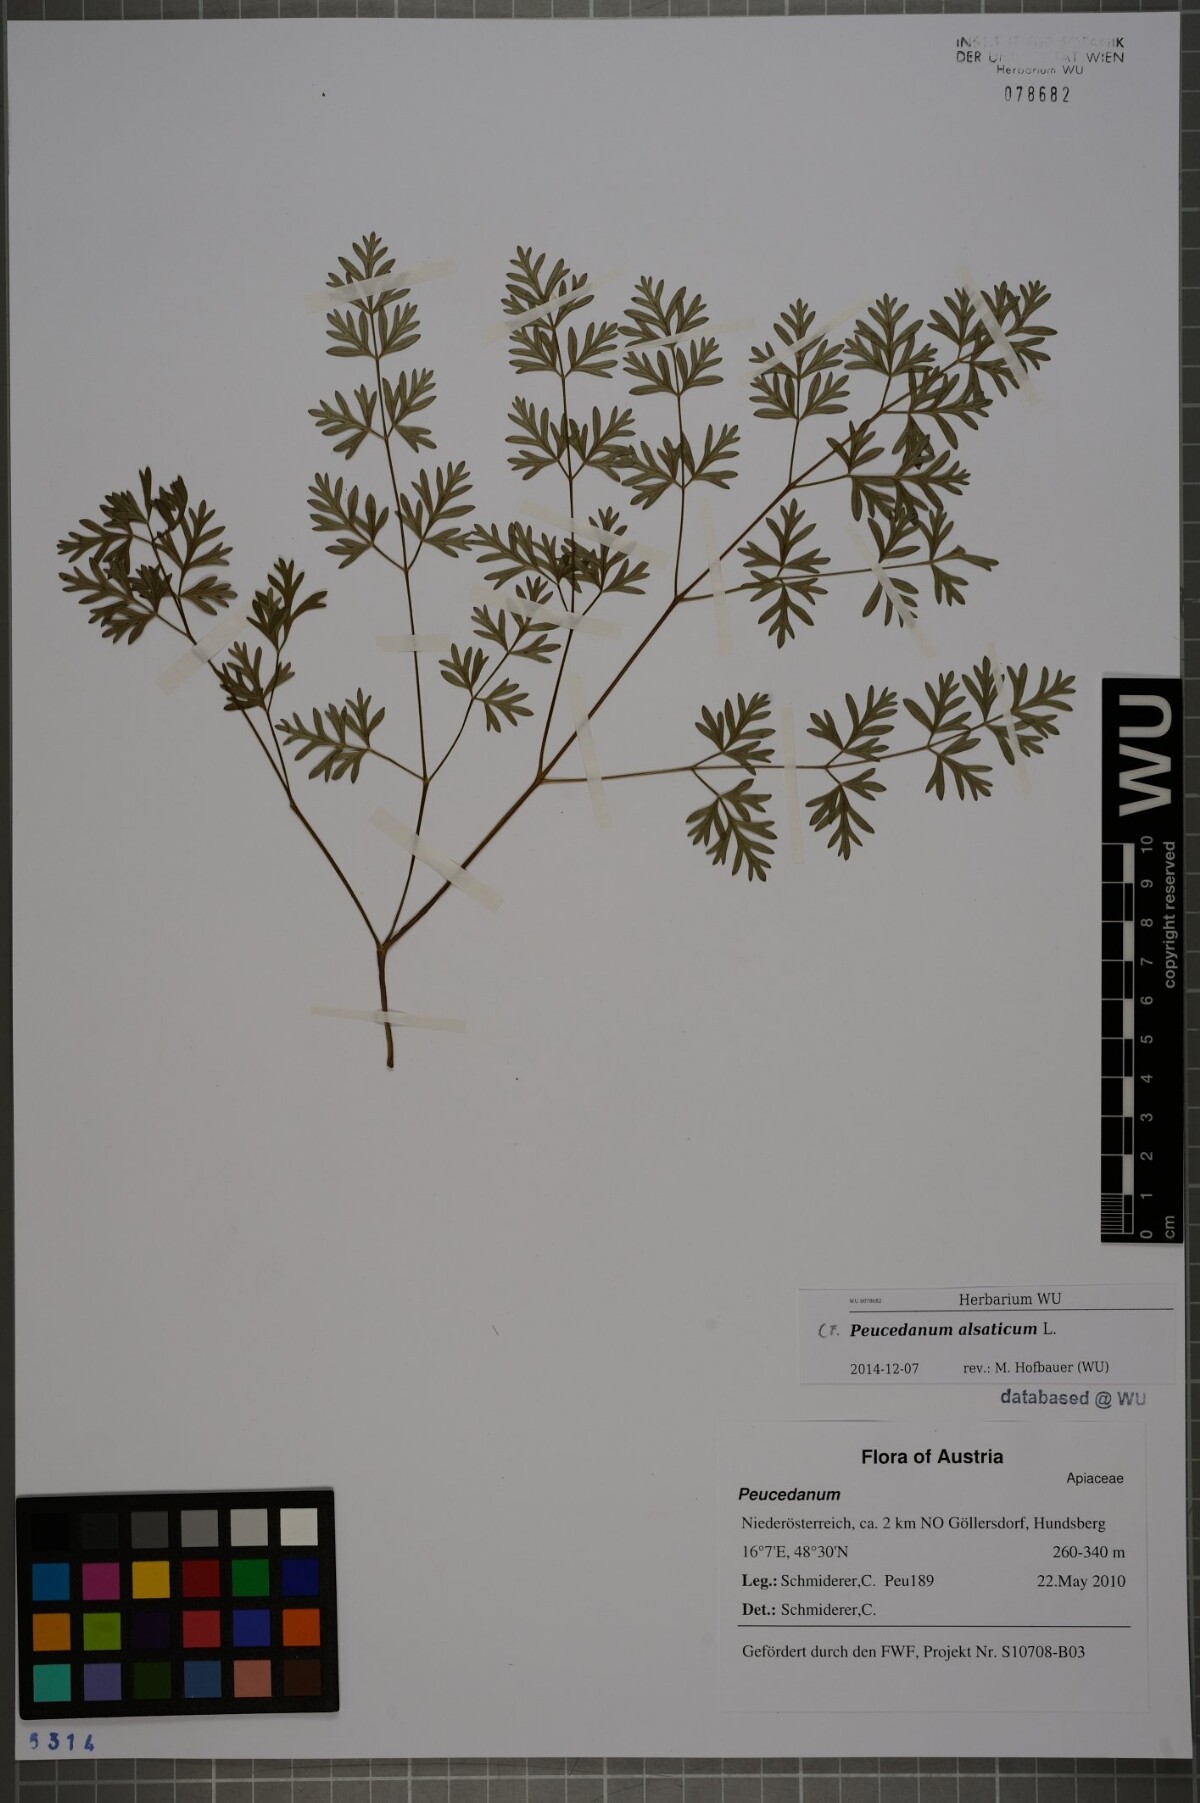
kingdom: Plantae
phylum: Tracheophyta
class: Magnoliopsida
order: Apiales
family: Apiaceae
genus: Xanthoselinum
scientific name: Xanthoselinum alsaticum
